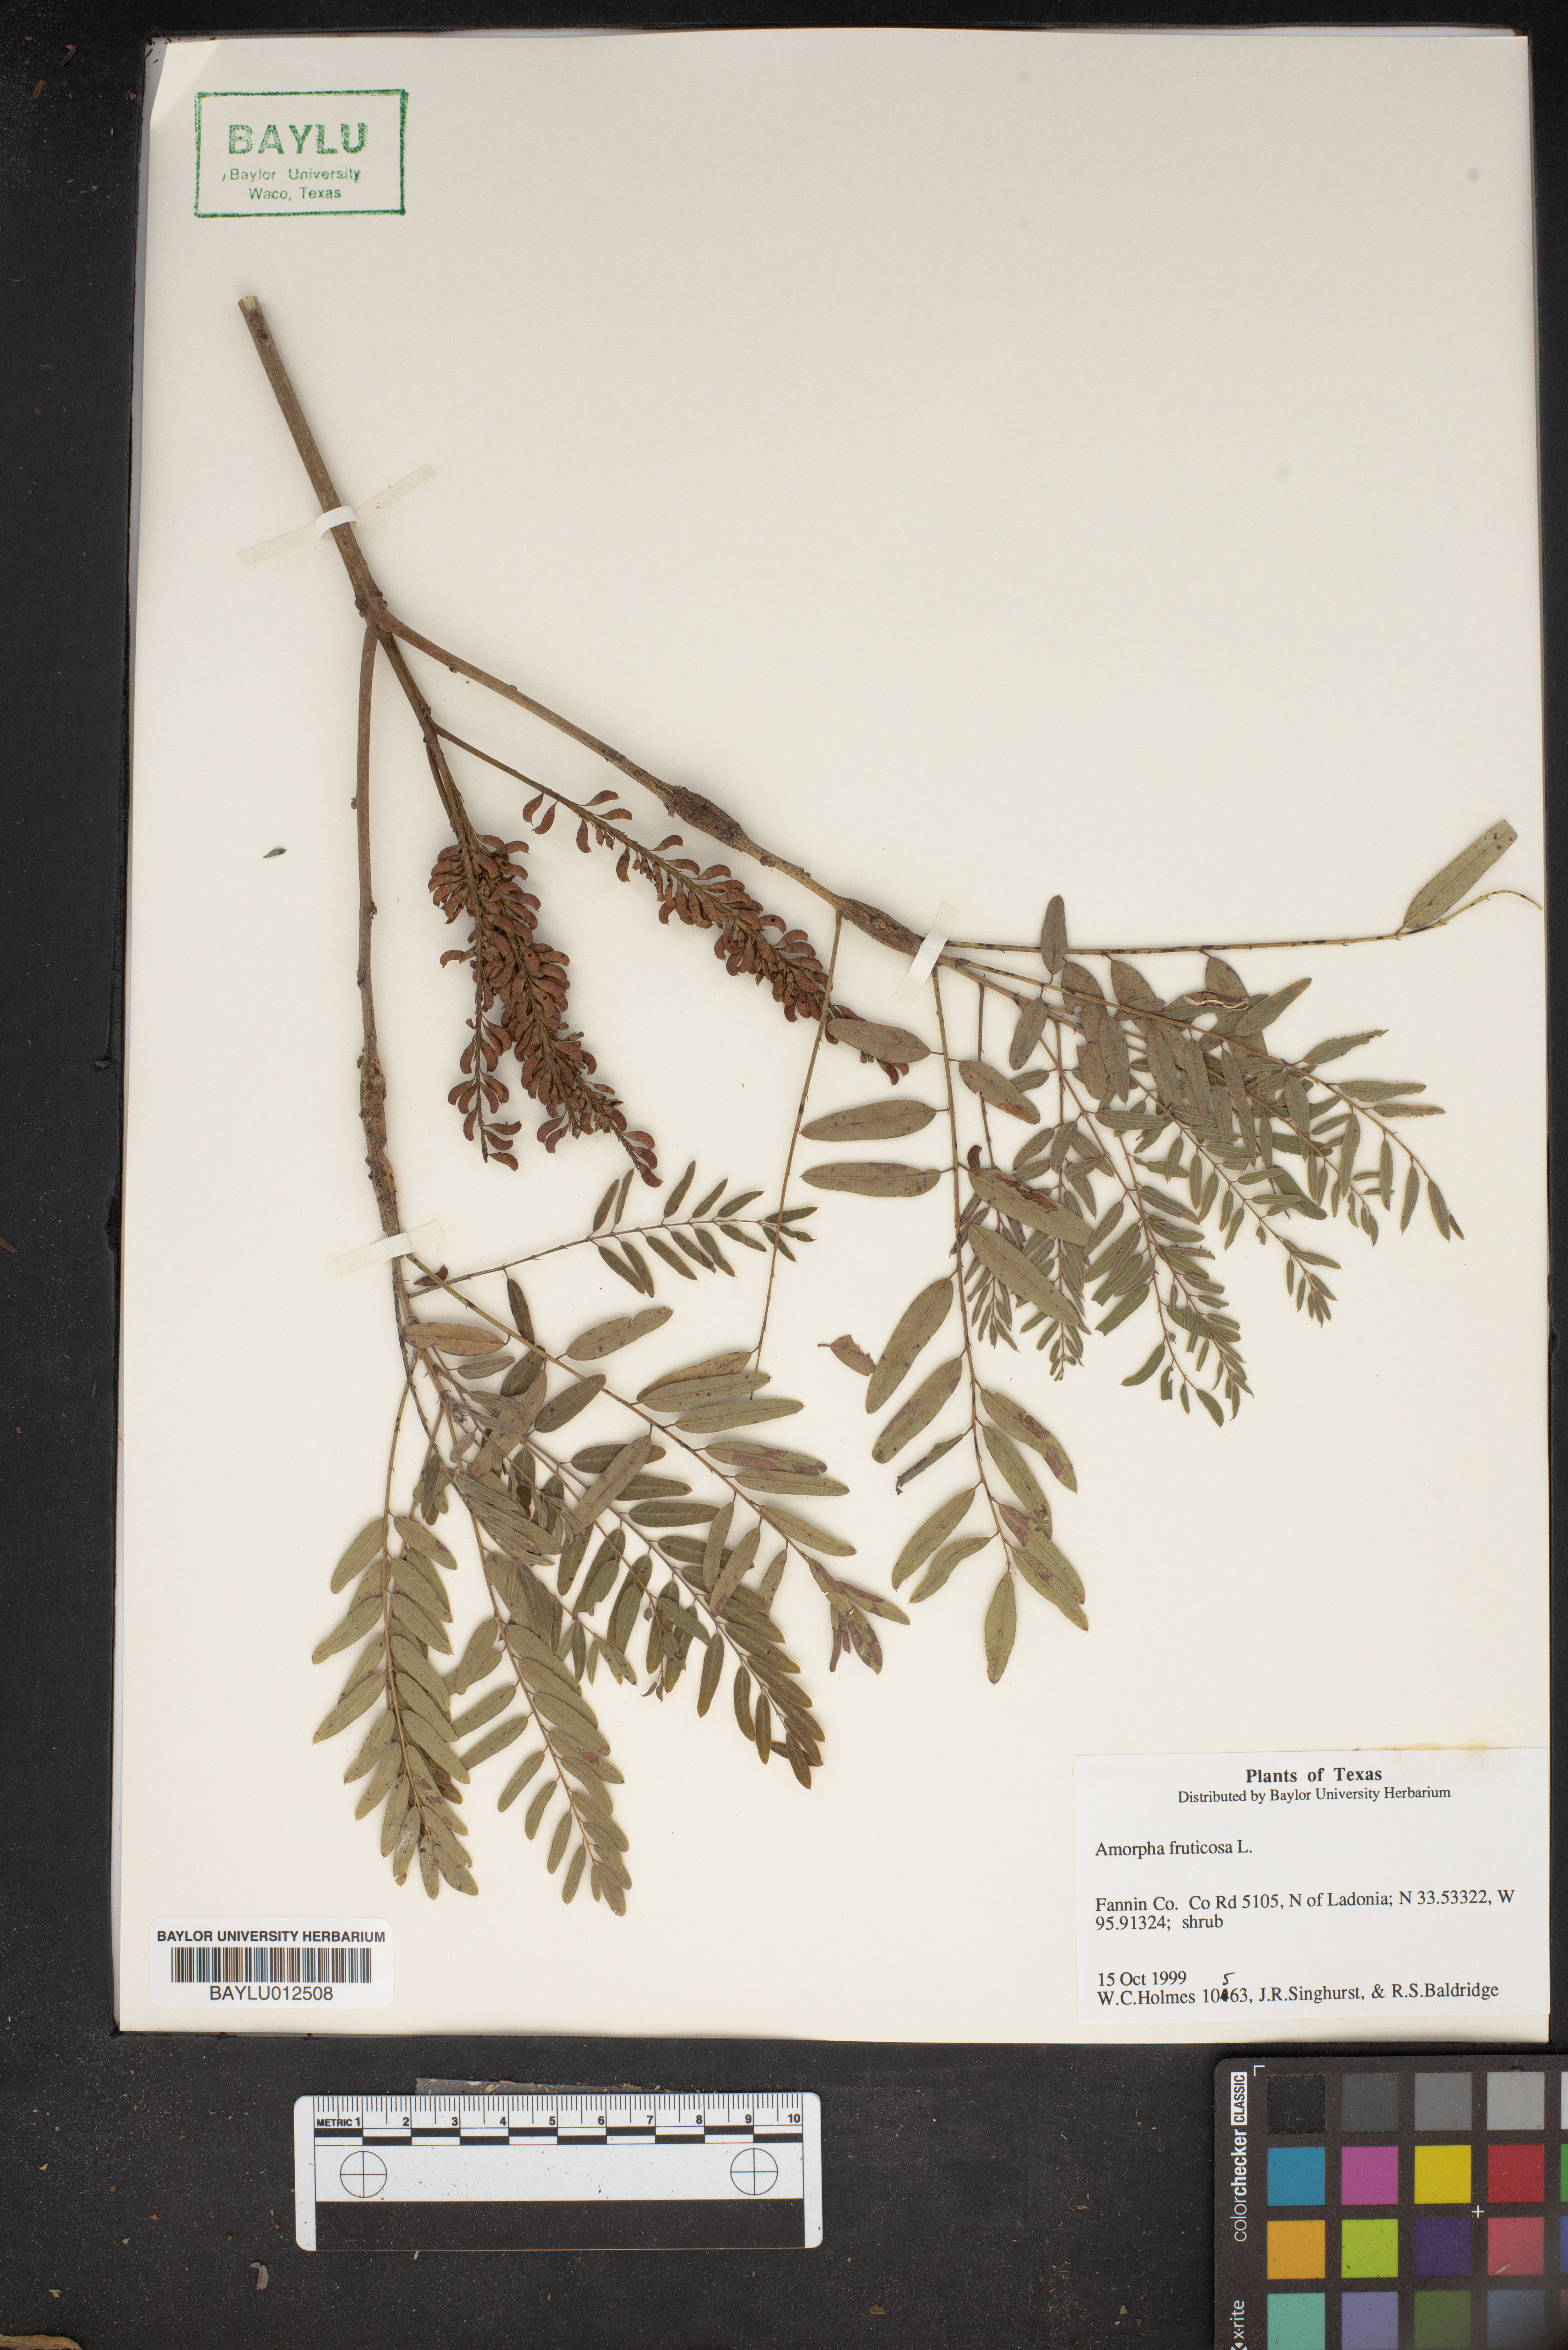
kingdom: Plantae
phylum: Tracheophyta
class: Magnoliopsida
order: Fabales
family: Fabaceae
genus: Amorpha
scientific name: Amorpha fruticosa
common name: False indigo
